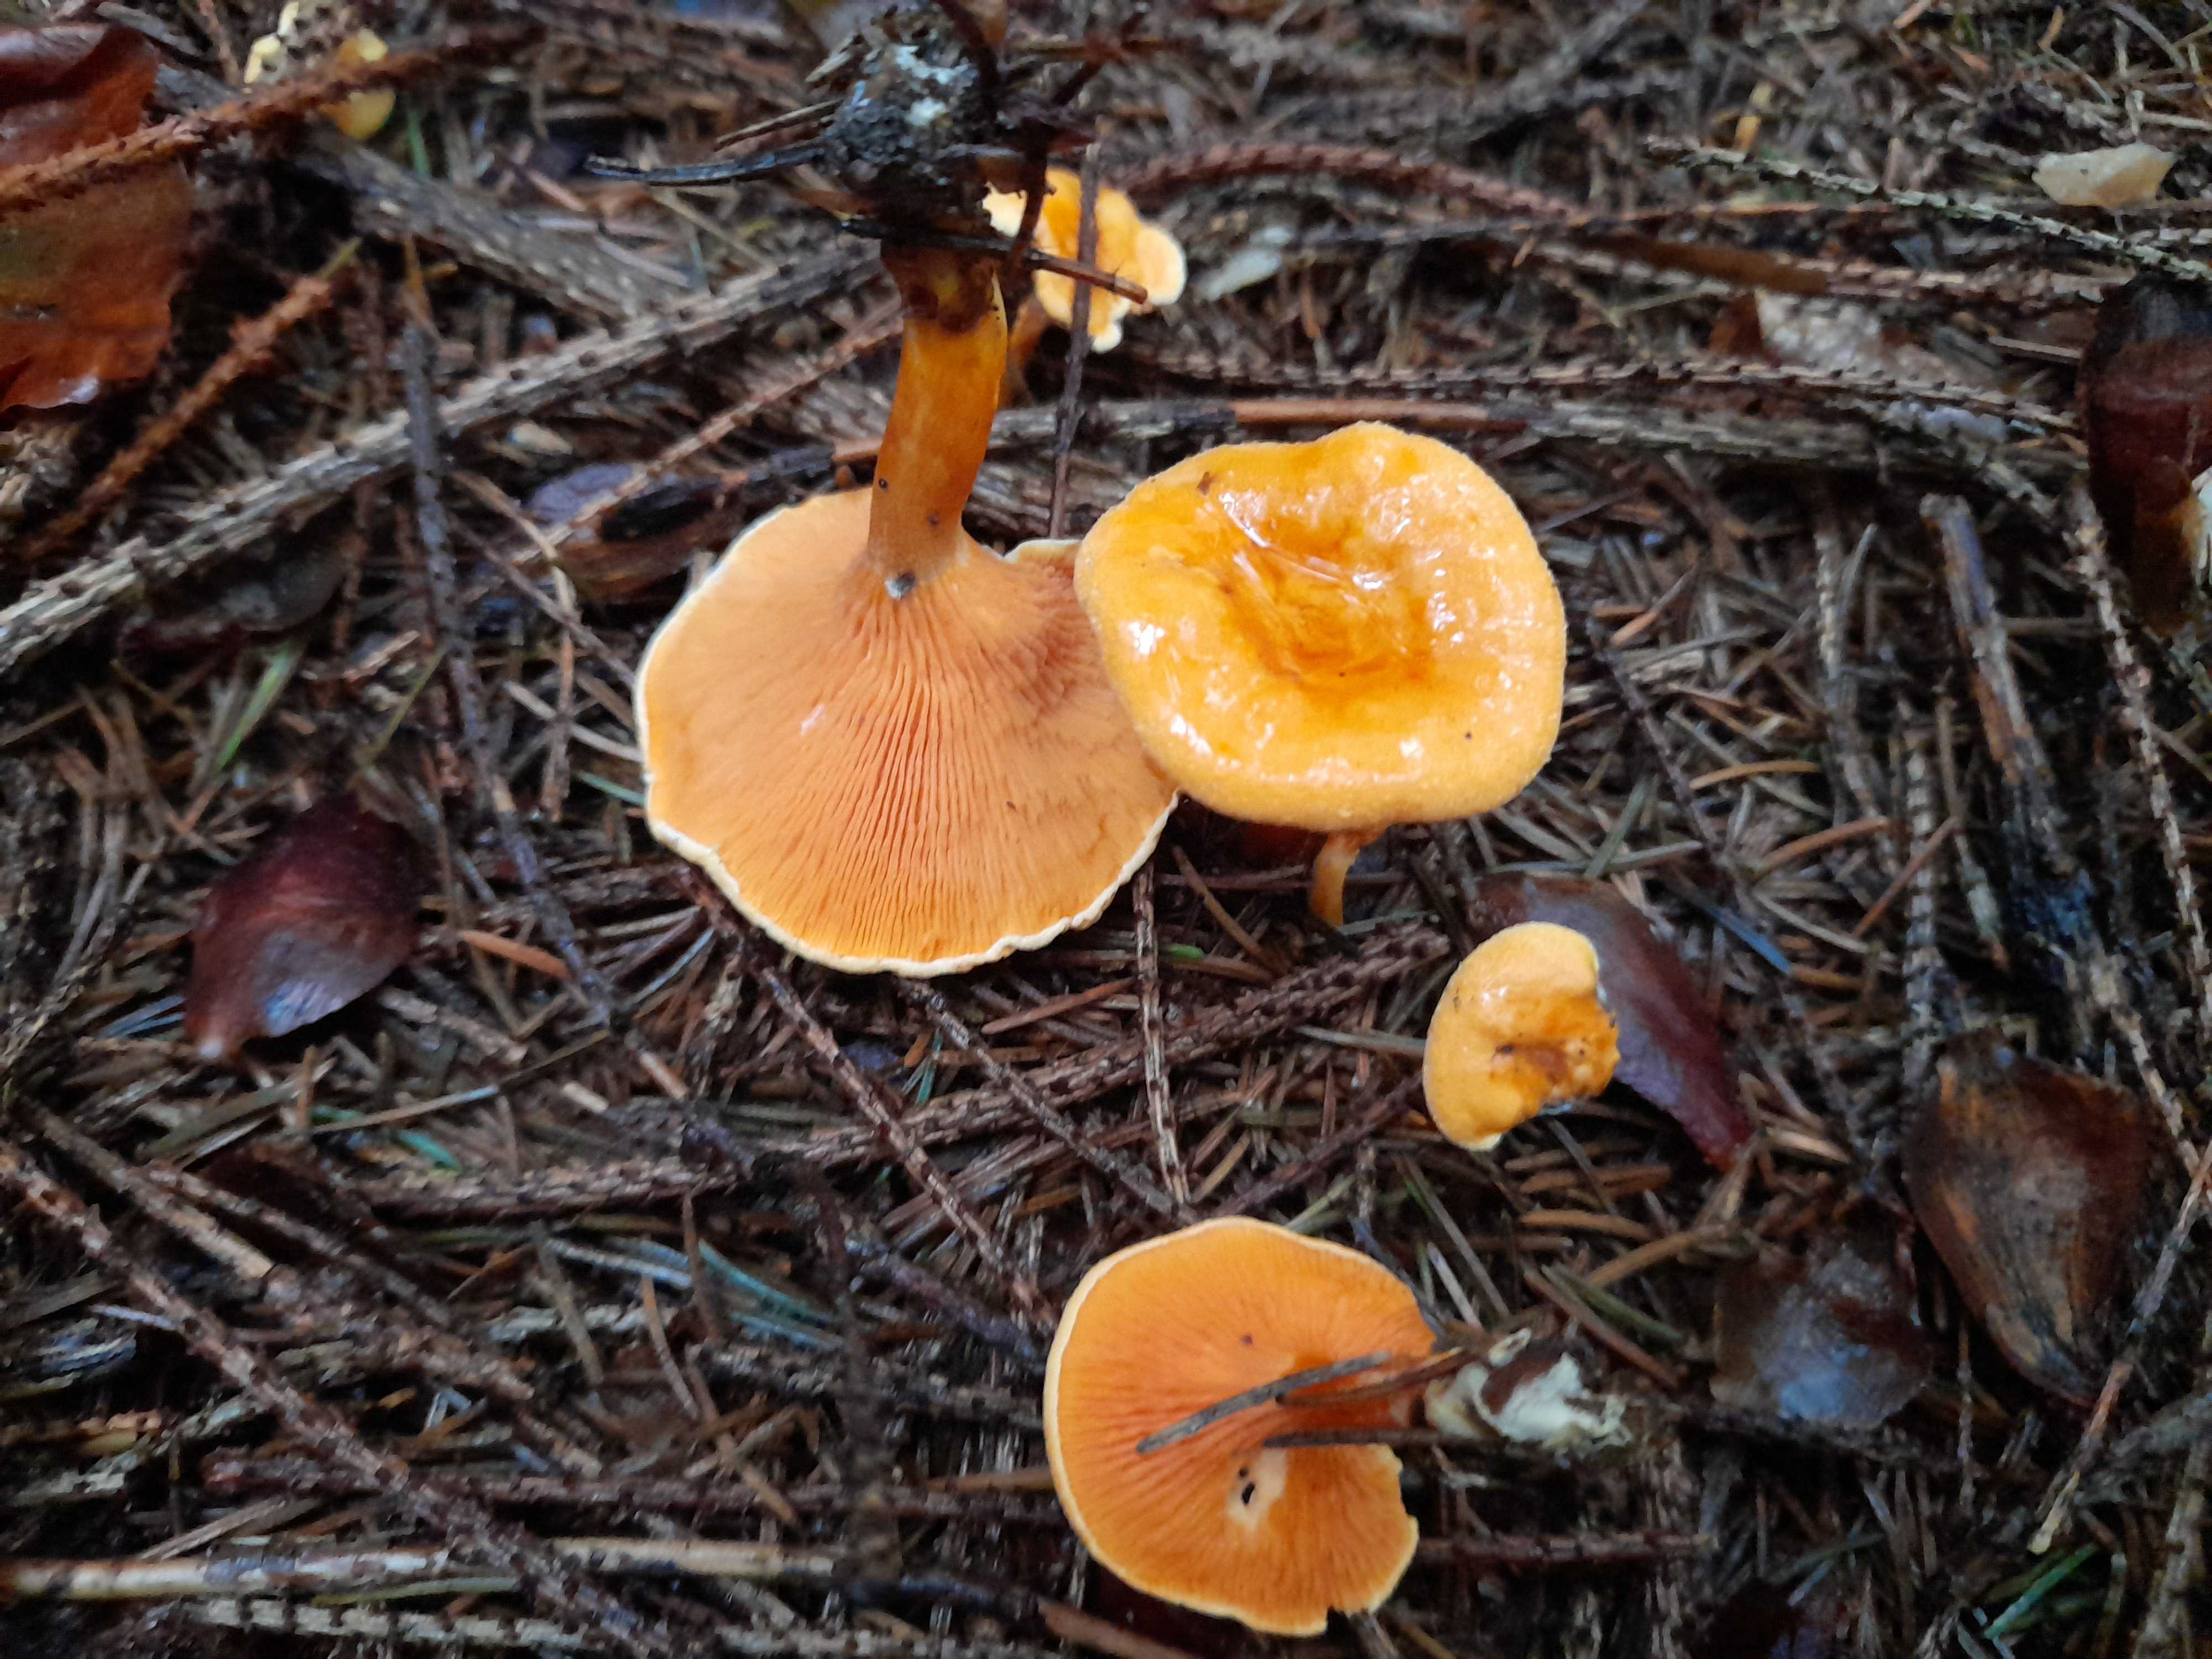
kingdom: Fungi
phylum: Basidiomycota
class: Agaricomycetes
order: Boletales
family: Hygrophoropsidaceae
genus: Hygrophoropsis
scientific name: Hygrophoropsis aurantiaca
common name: almindelig orangekantarel
